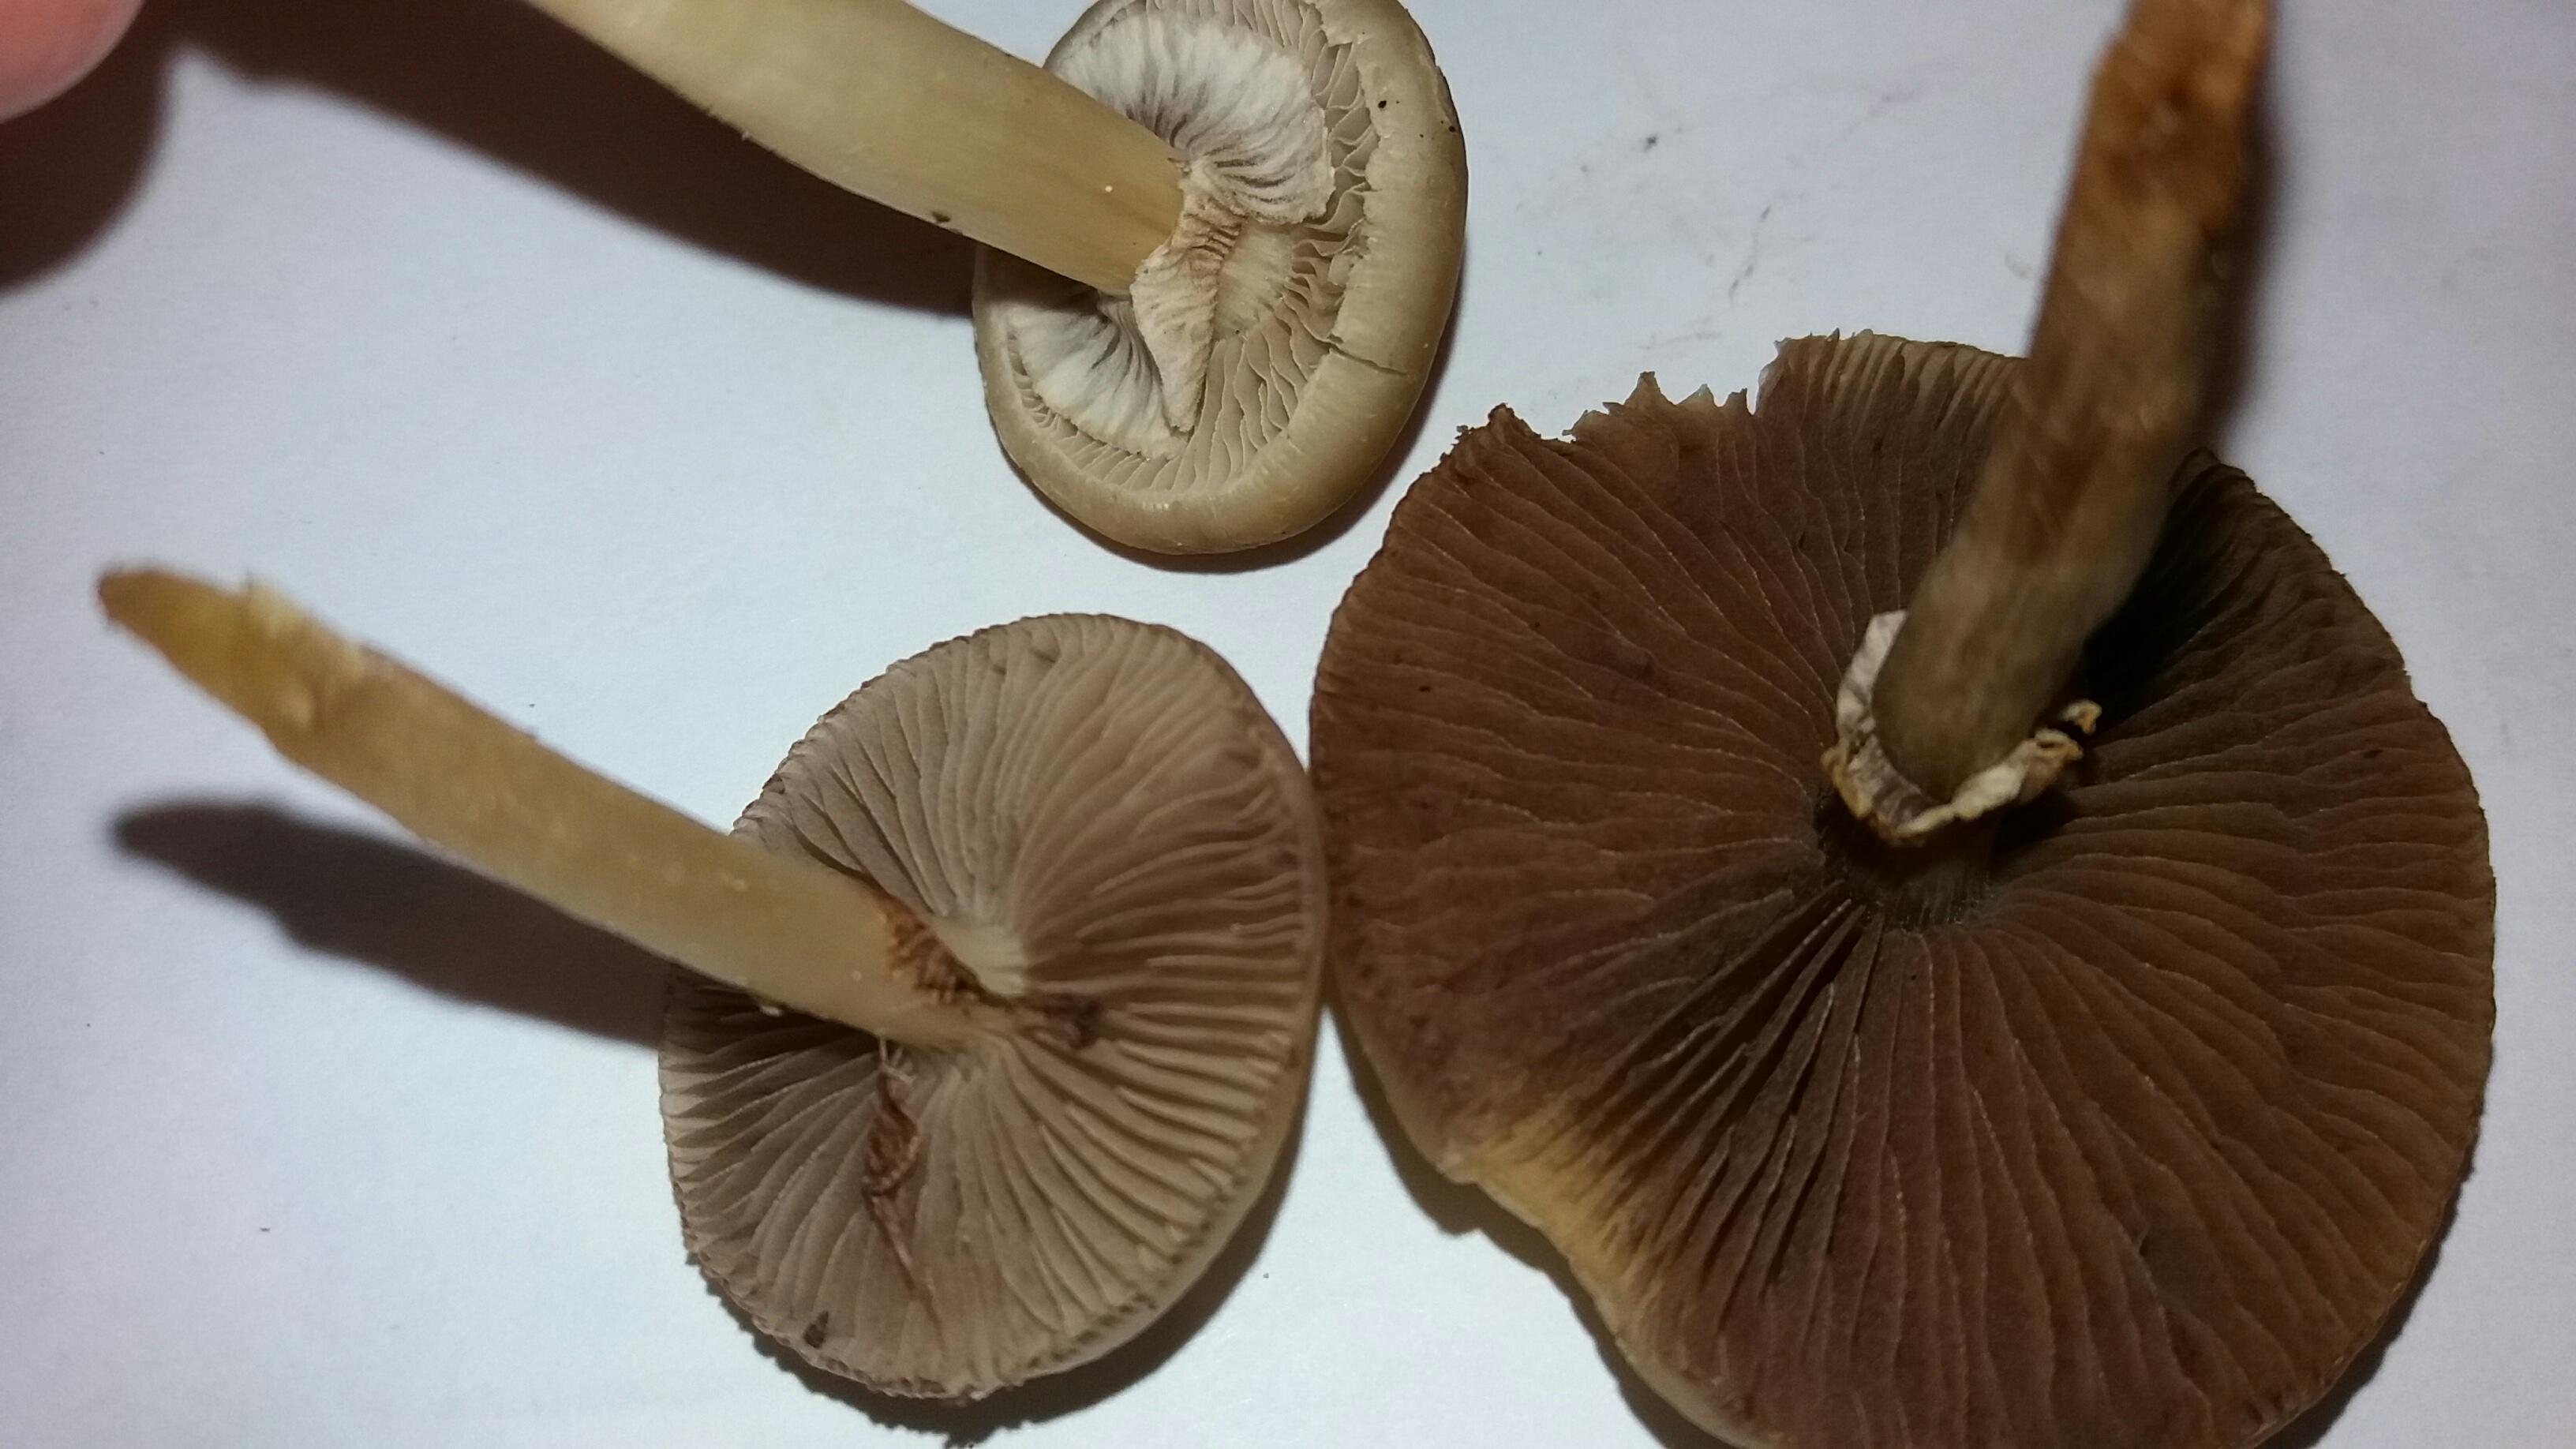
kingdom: Fungi
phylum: Basidiomycota
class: Agaricomycetes
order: Agaricales
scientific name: Agaricales
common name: champignonordenen
